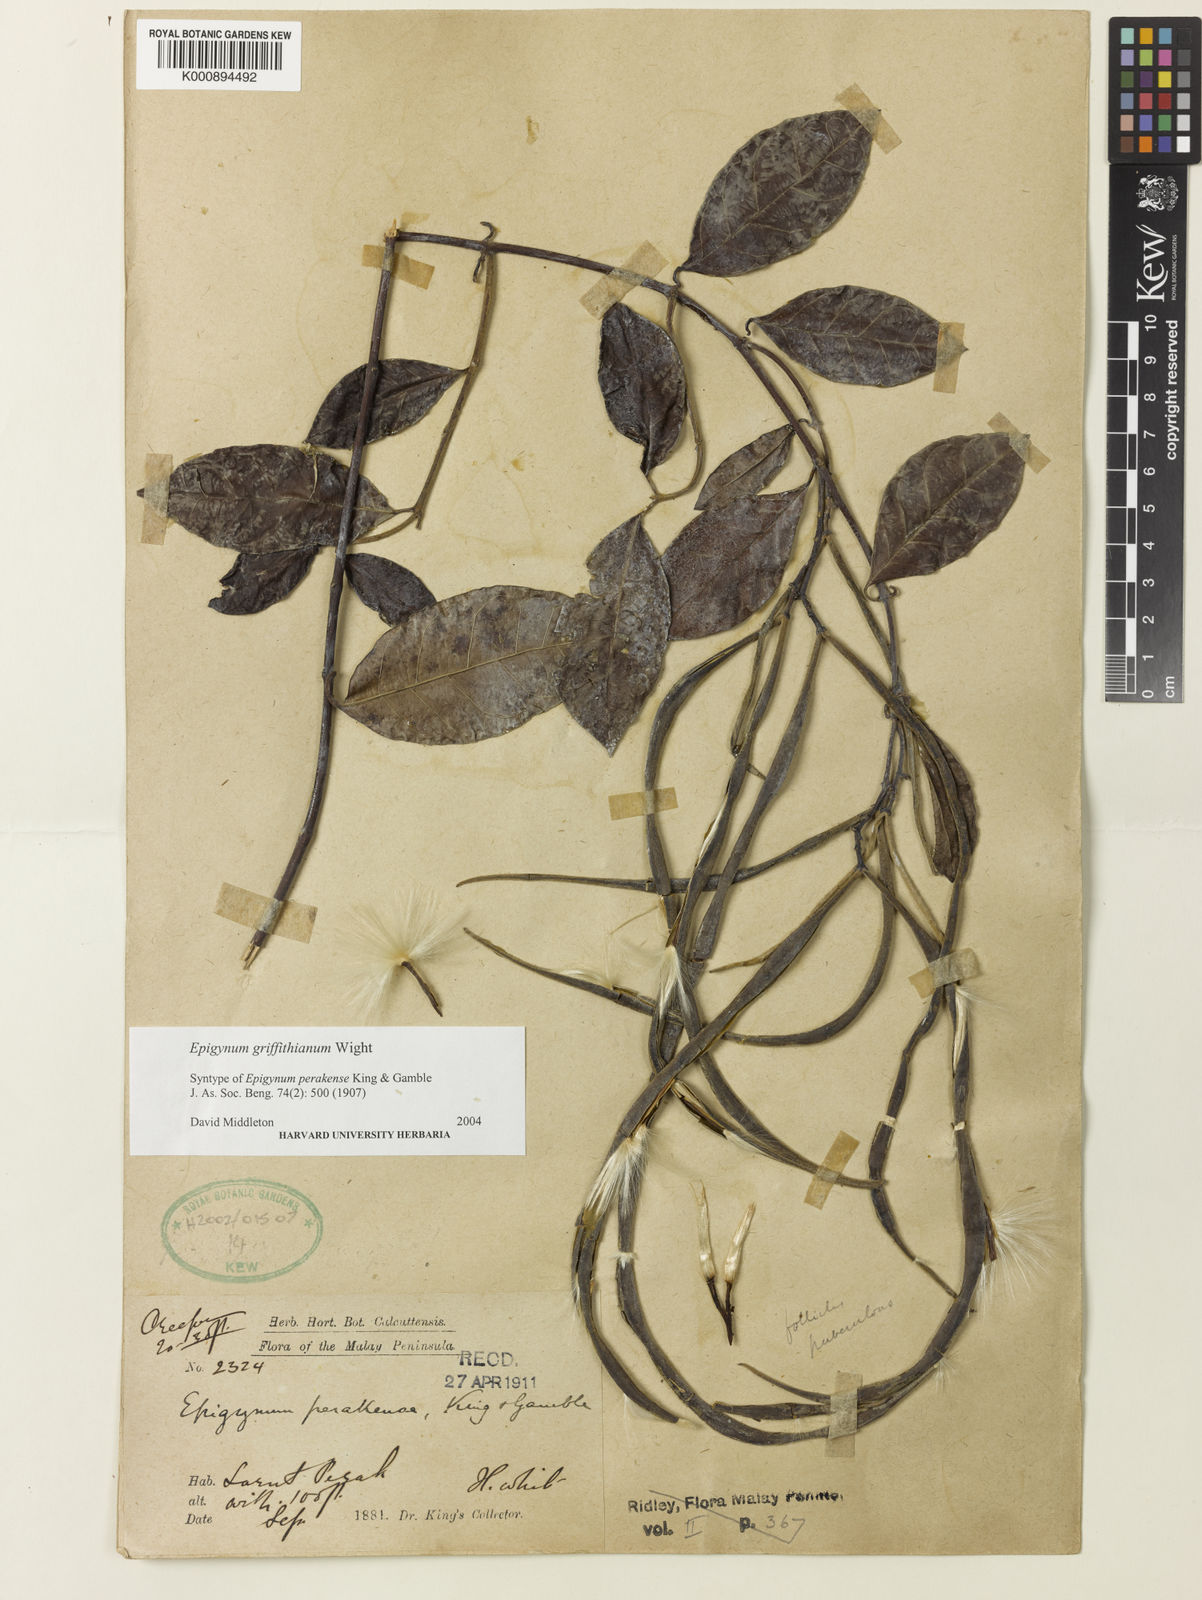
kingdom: Plantae
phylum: Tracheophyta
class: Magnoliopsida
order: Gentianales
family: Apocynaceae
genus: Epigynum
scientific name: Epigynum griffithianum
